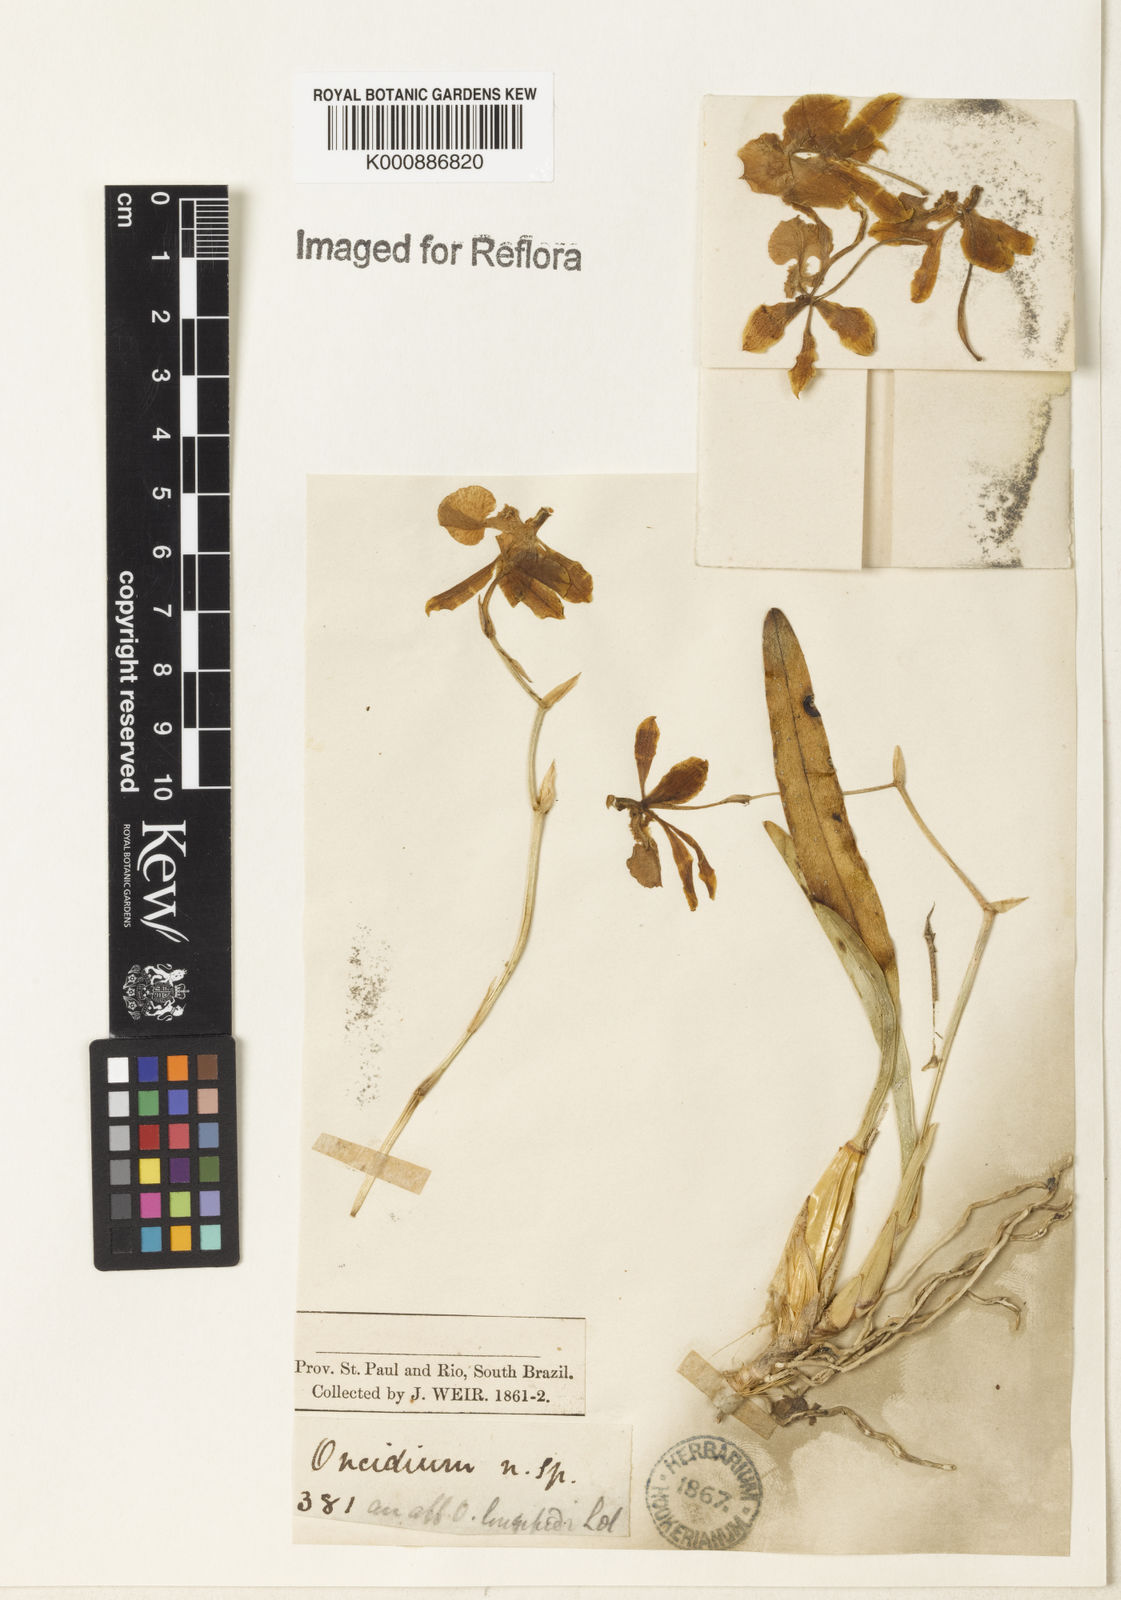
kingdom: Plantae
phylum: Tracheophyta
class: Liliopsida
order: Asparagales
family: Orchidaceae
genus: Gomesa
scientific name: Gomesa uniflora
